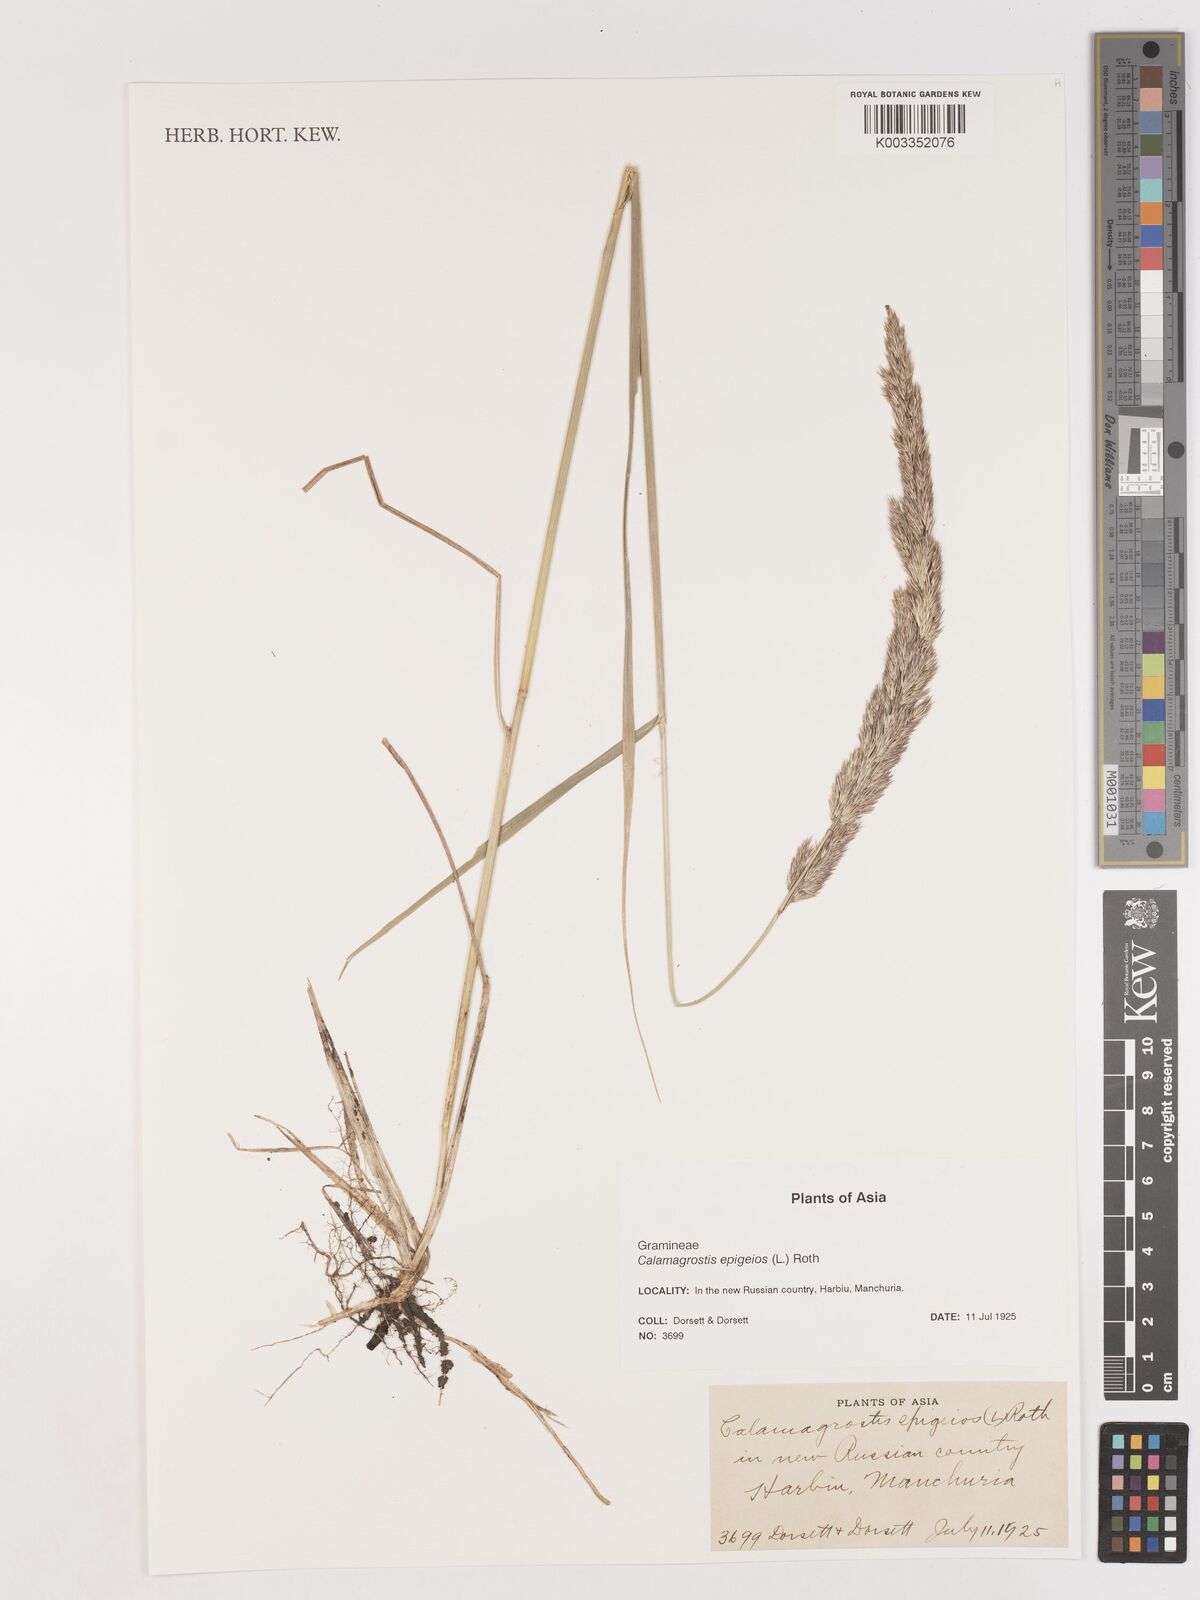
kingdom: Plantae
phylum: Tracheophyta
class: Liliopsida
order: Poales
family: Poaceae
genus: Calamagrostis
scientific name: Calamagrostis epigejos
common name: Wood small-reed
